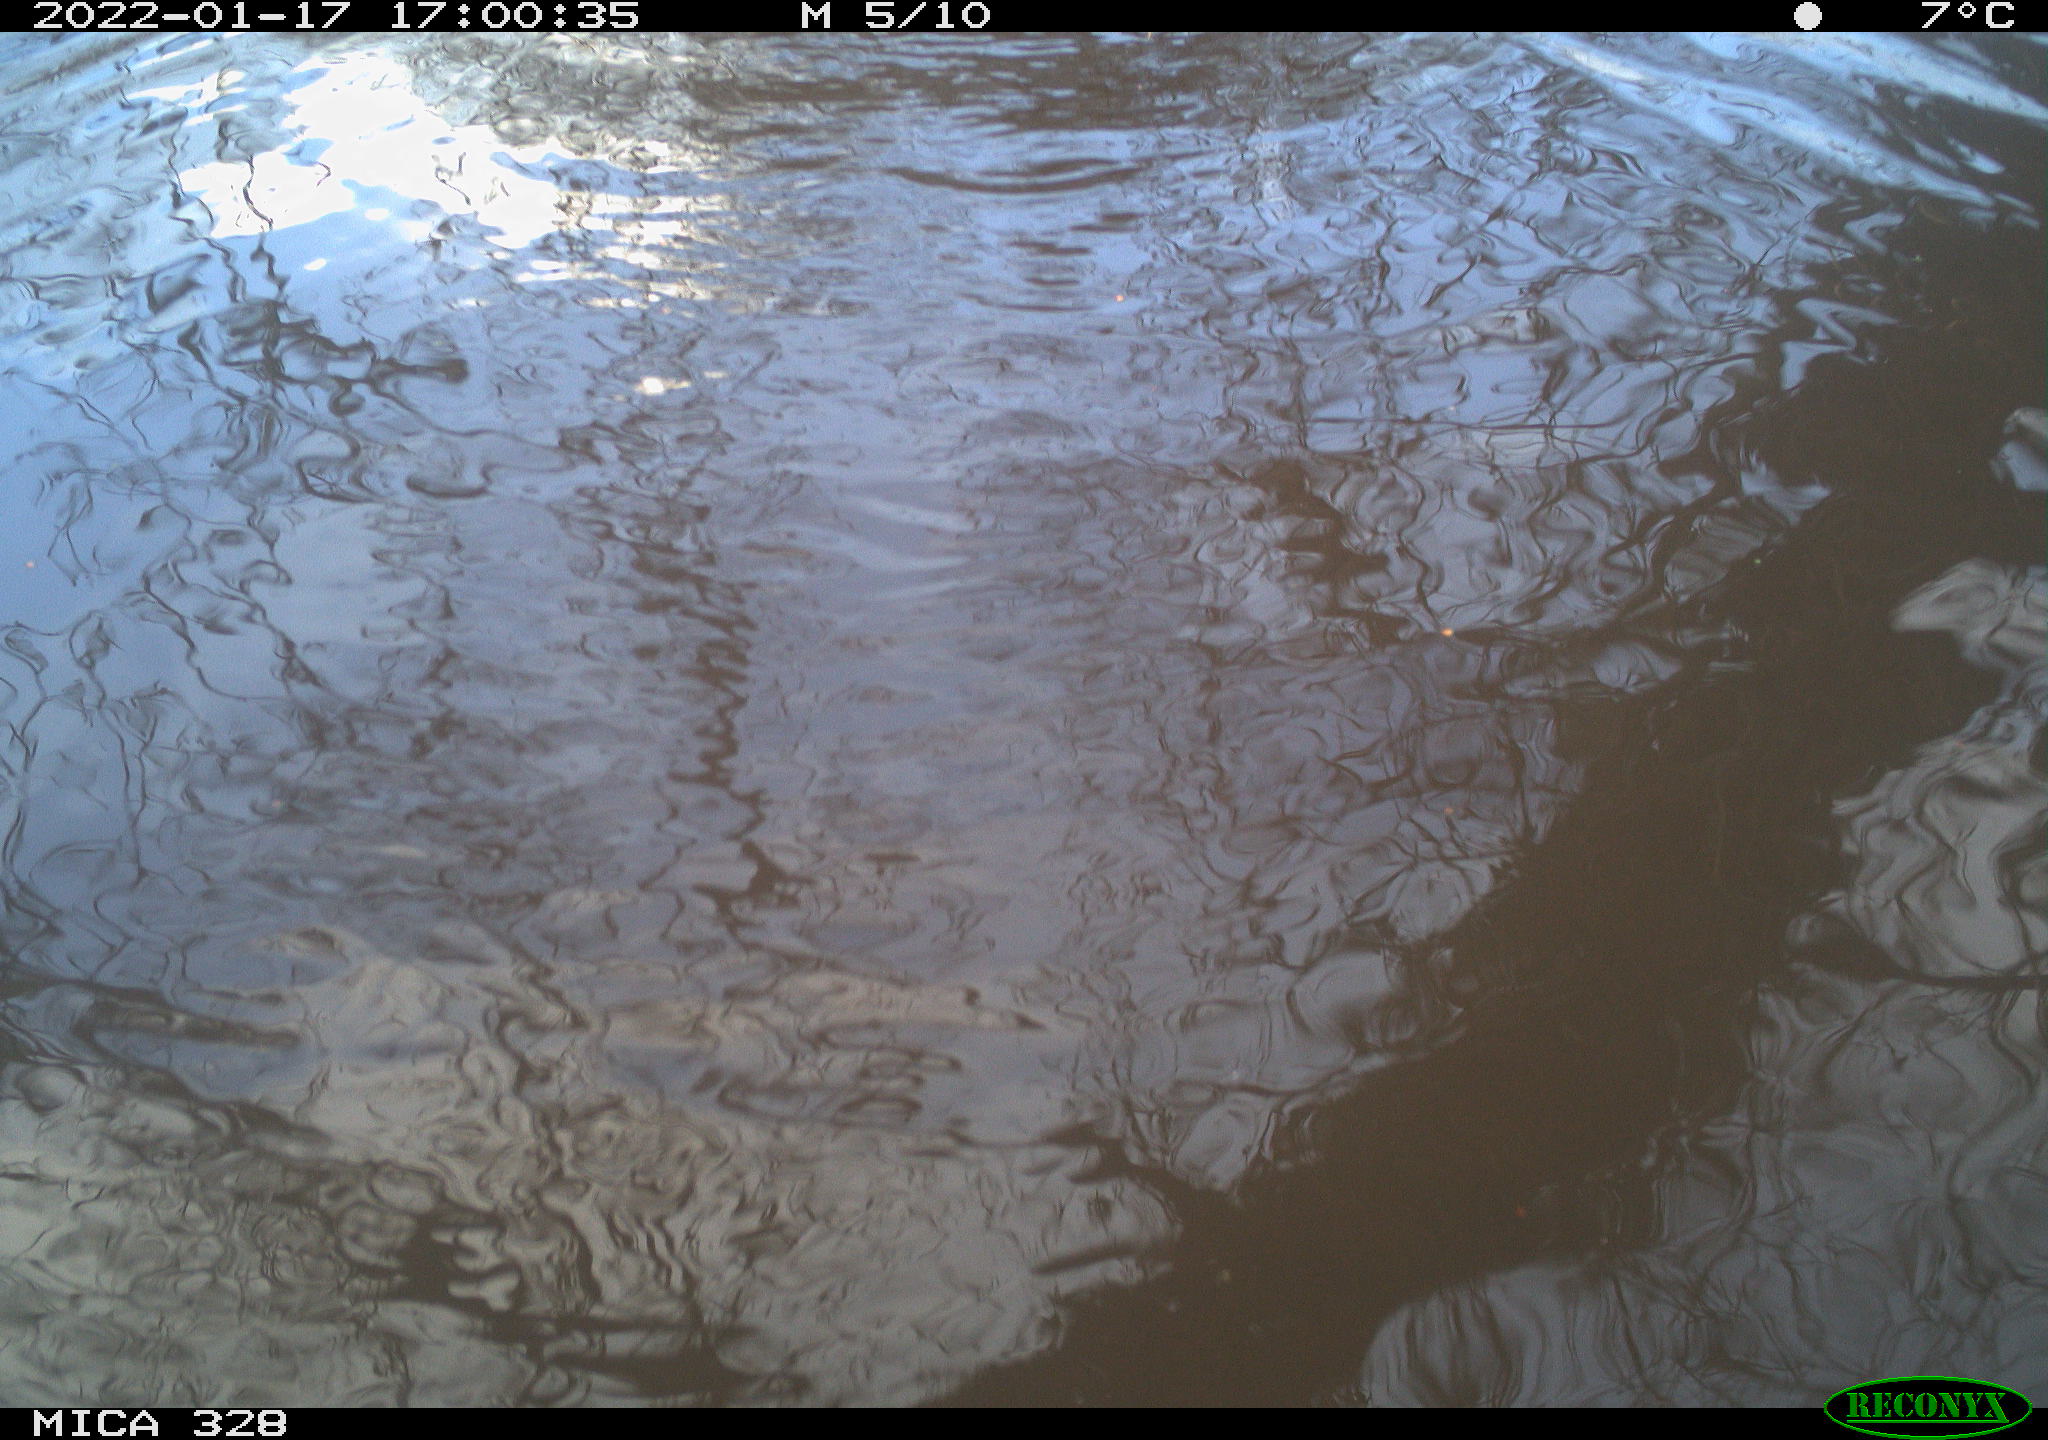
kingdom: Animalia
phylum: Chordata
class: Mammalia
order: Rodentia
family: Cricetidae
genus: Ondatra
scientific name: Ondatra zibethicus
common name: Muskrat
